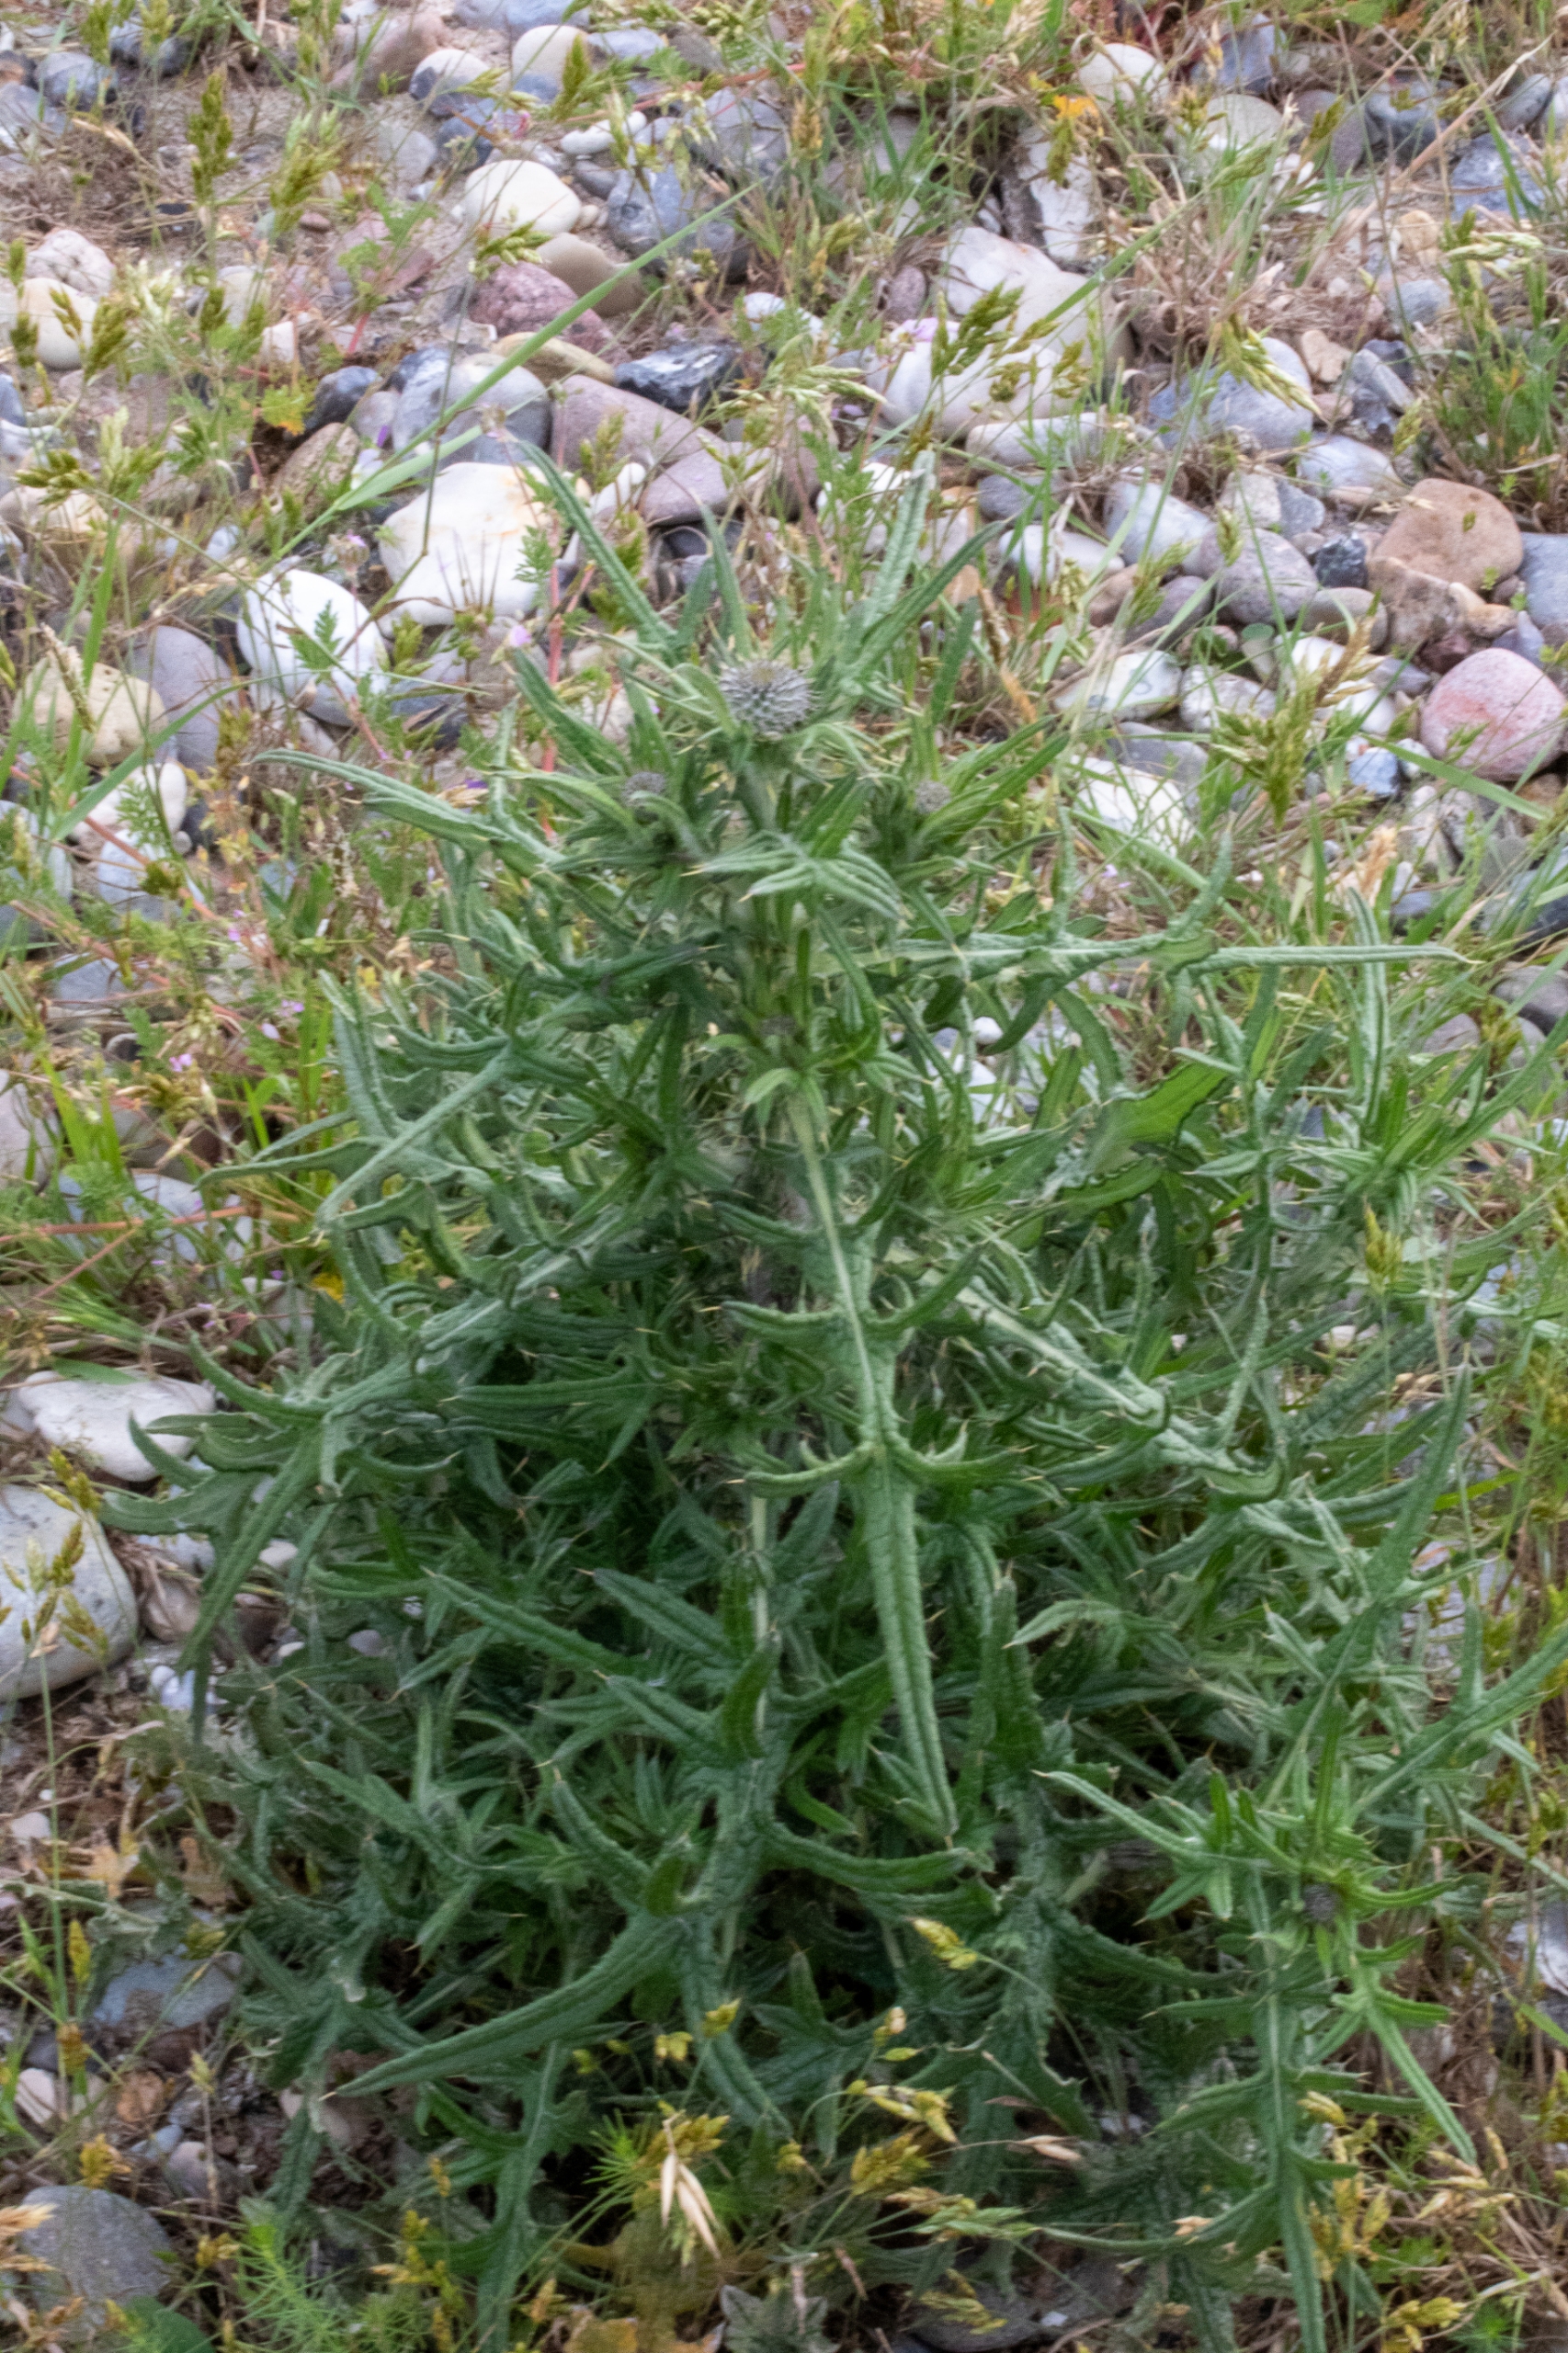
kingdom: Plantae
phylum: Tracheophyta
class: Magnoliopsida
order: Asterales
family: Asteraceae
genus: Cirsium
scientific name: Cirsium vulgare
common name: Horse-tidsel
